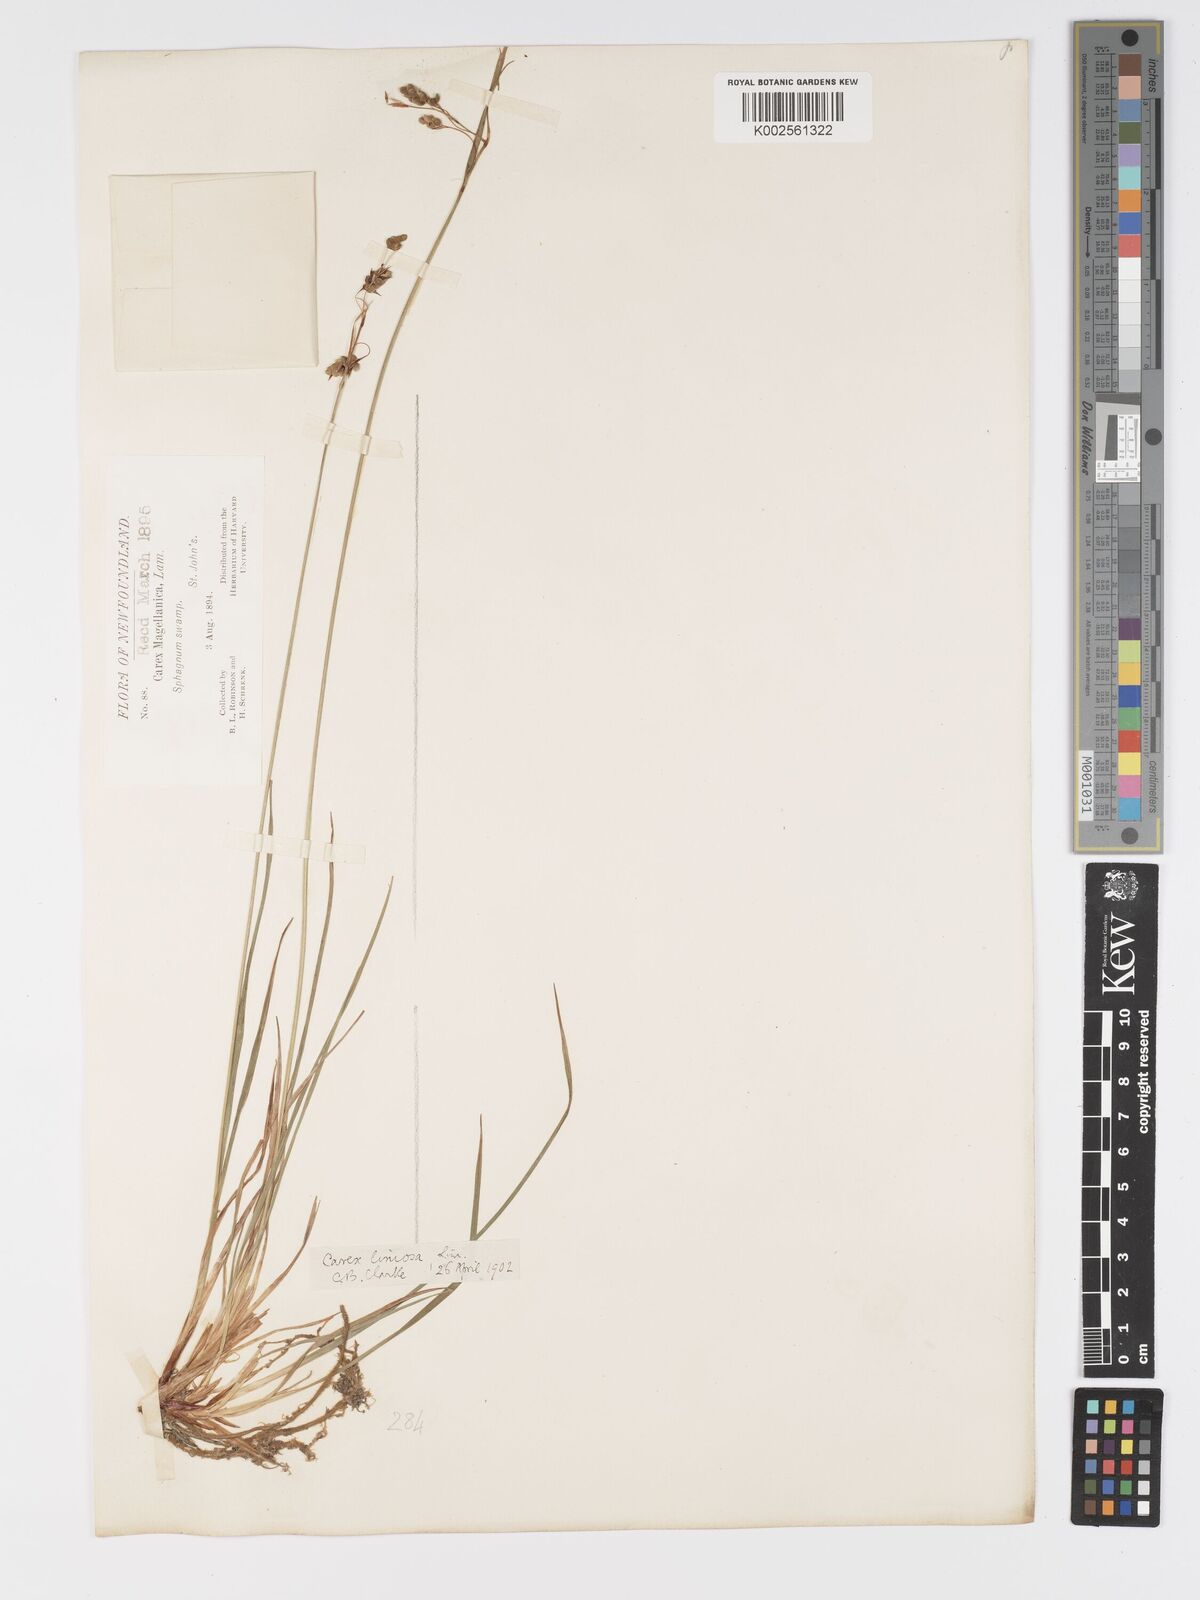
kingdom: Plantae
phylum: Tracheophyta
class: Liliopsida
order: Poales
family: Cyperaceae
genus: Carex
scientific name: Carex magellanica
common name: Bog sedge
